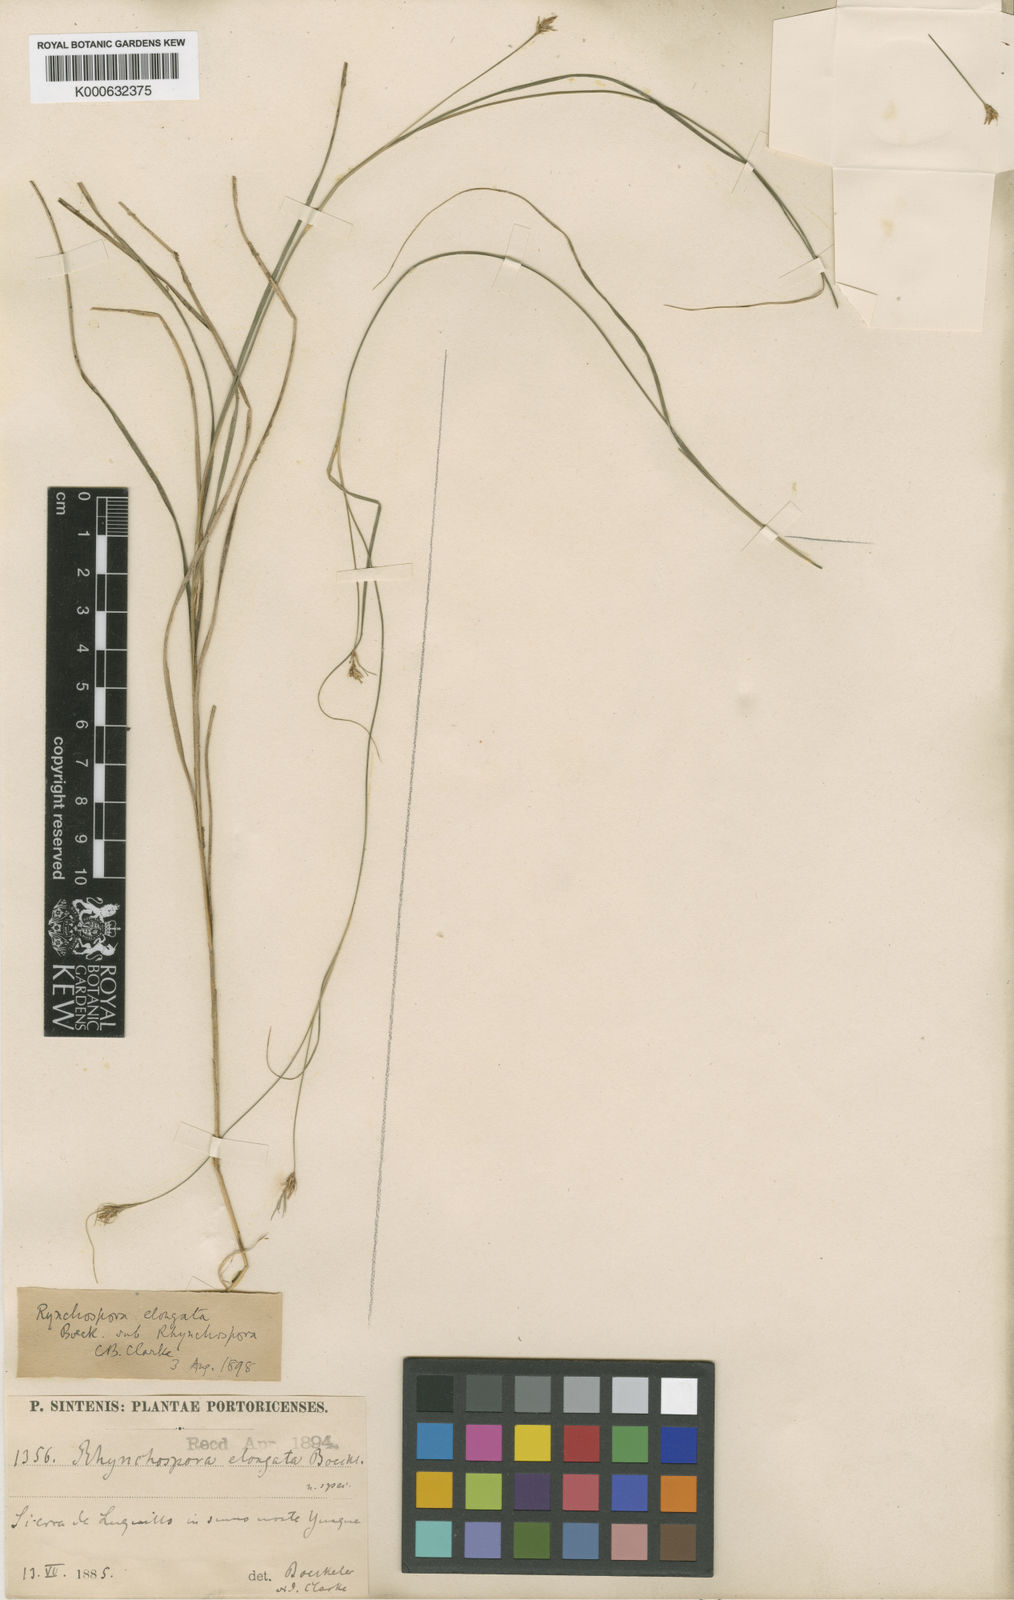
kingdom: Plantae
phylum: Tracheophyta
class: Liliopsida
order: Poales
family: Cyperaceae
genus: Rhynchospora
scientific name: Rhynchospora biflora
